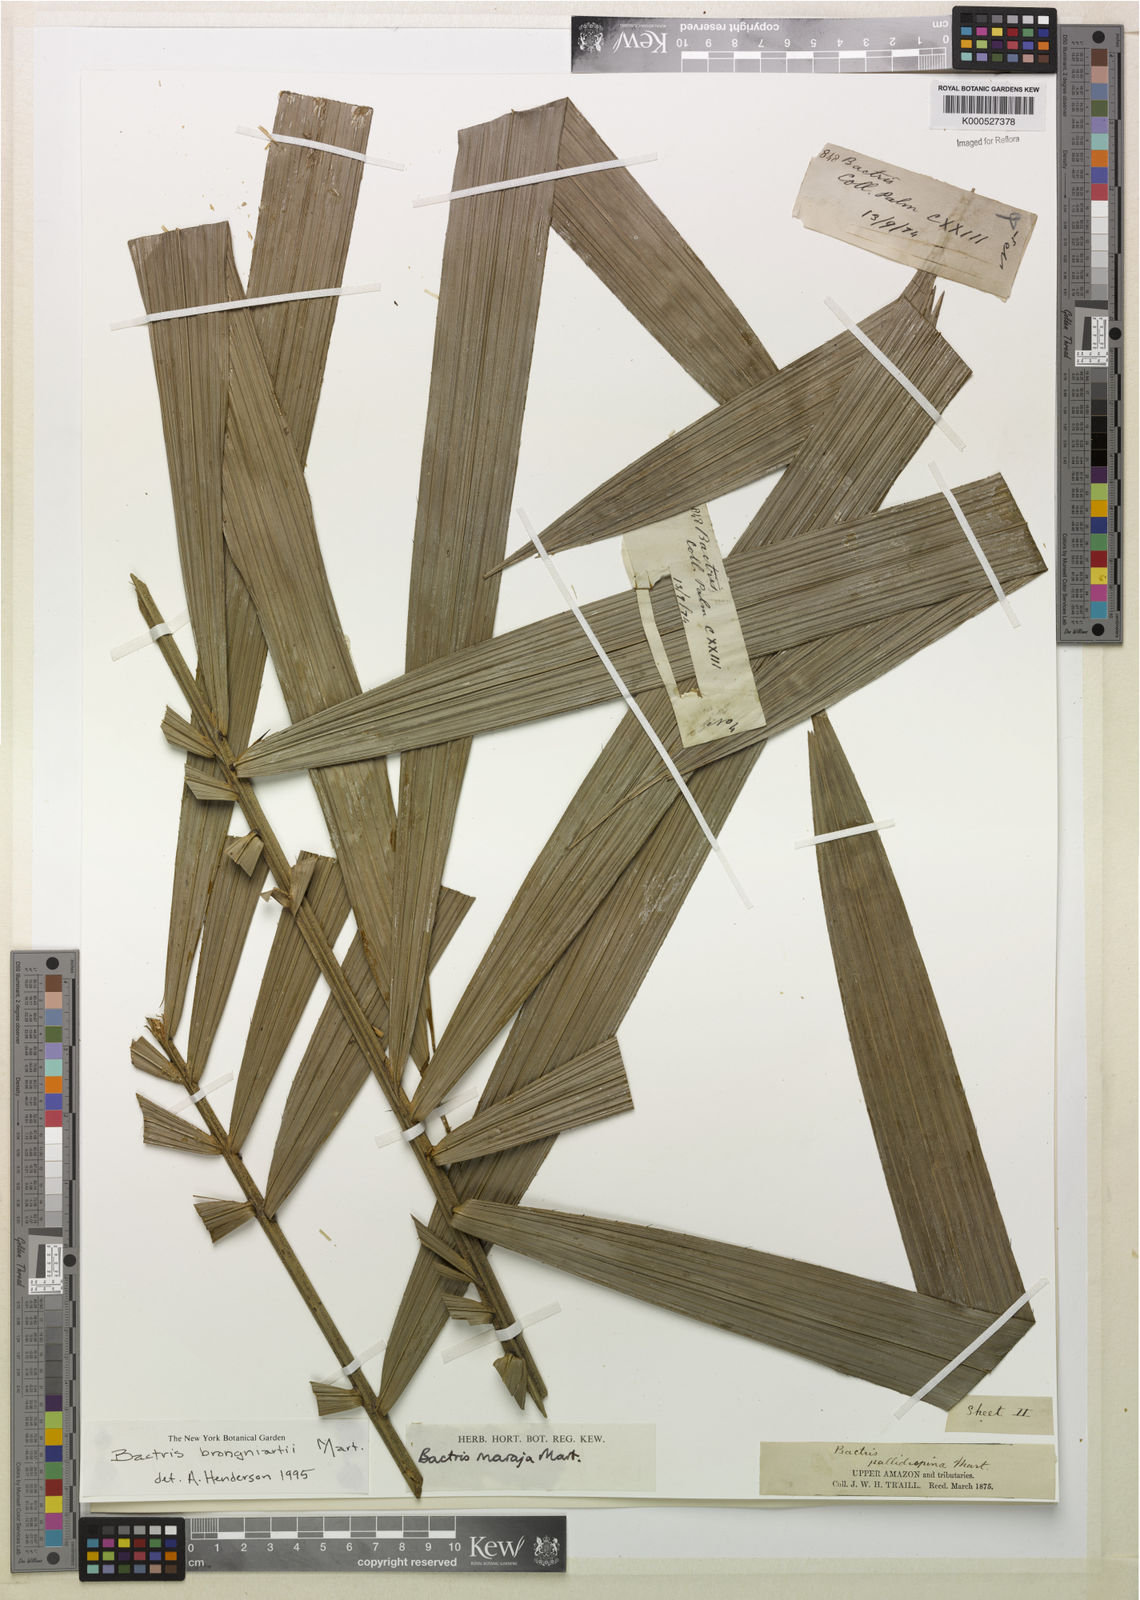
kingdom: Plantae
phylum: Tracheophyta
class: Liliopsida
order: Arecales
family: Arecaceae
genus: Bactris
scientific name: Bactris brongniartii
